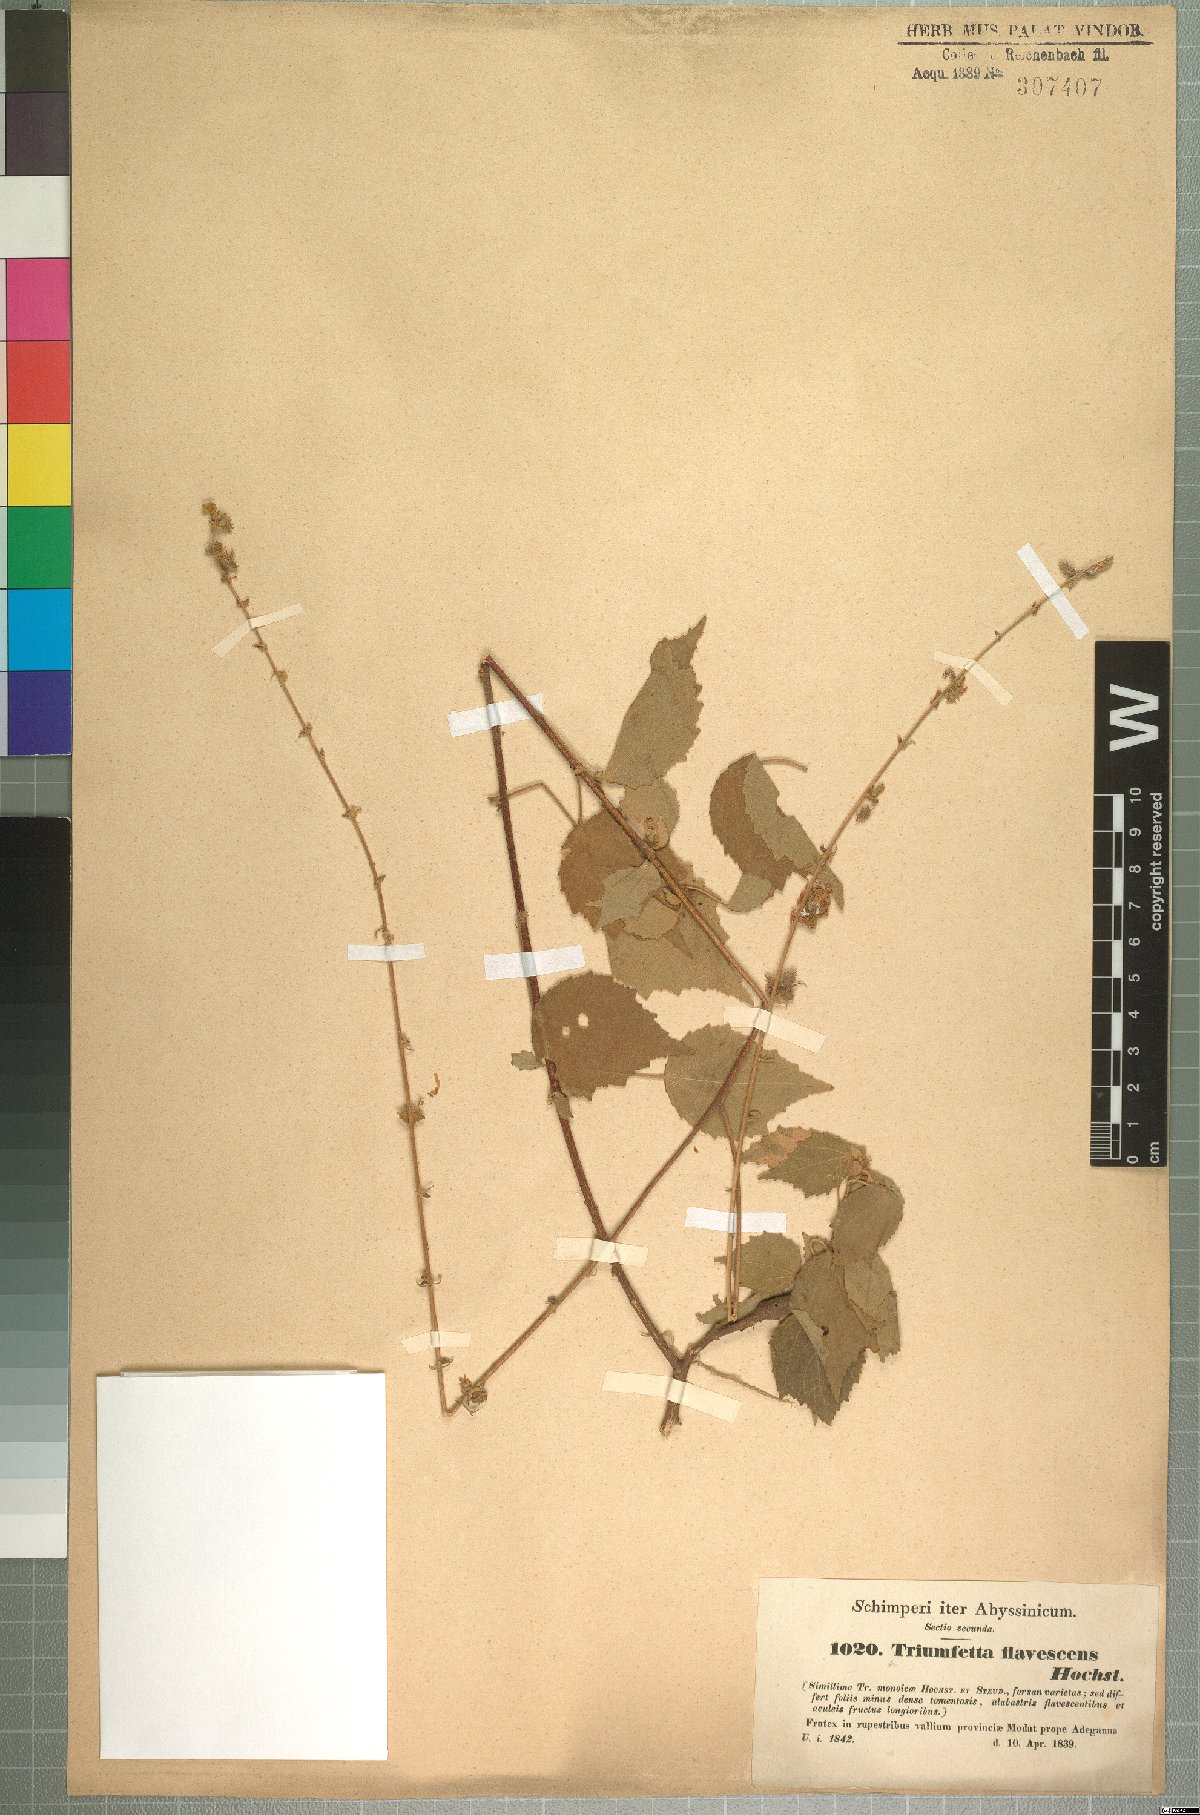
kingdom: Plantae
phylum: Tracheophyta
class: Magnoliopsida
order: Malvales
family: Malvaceae
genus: Triumfetta
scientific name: Triumfetta flavescens
